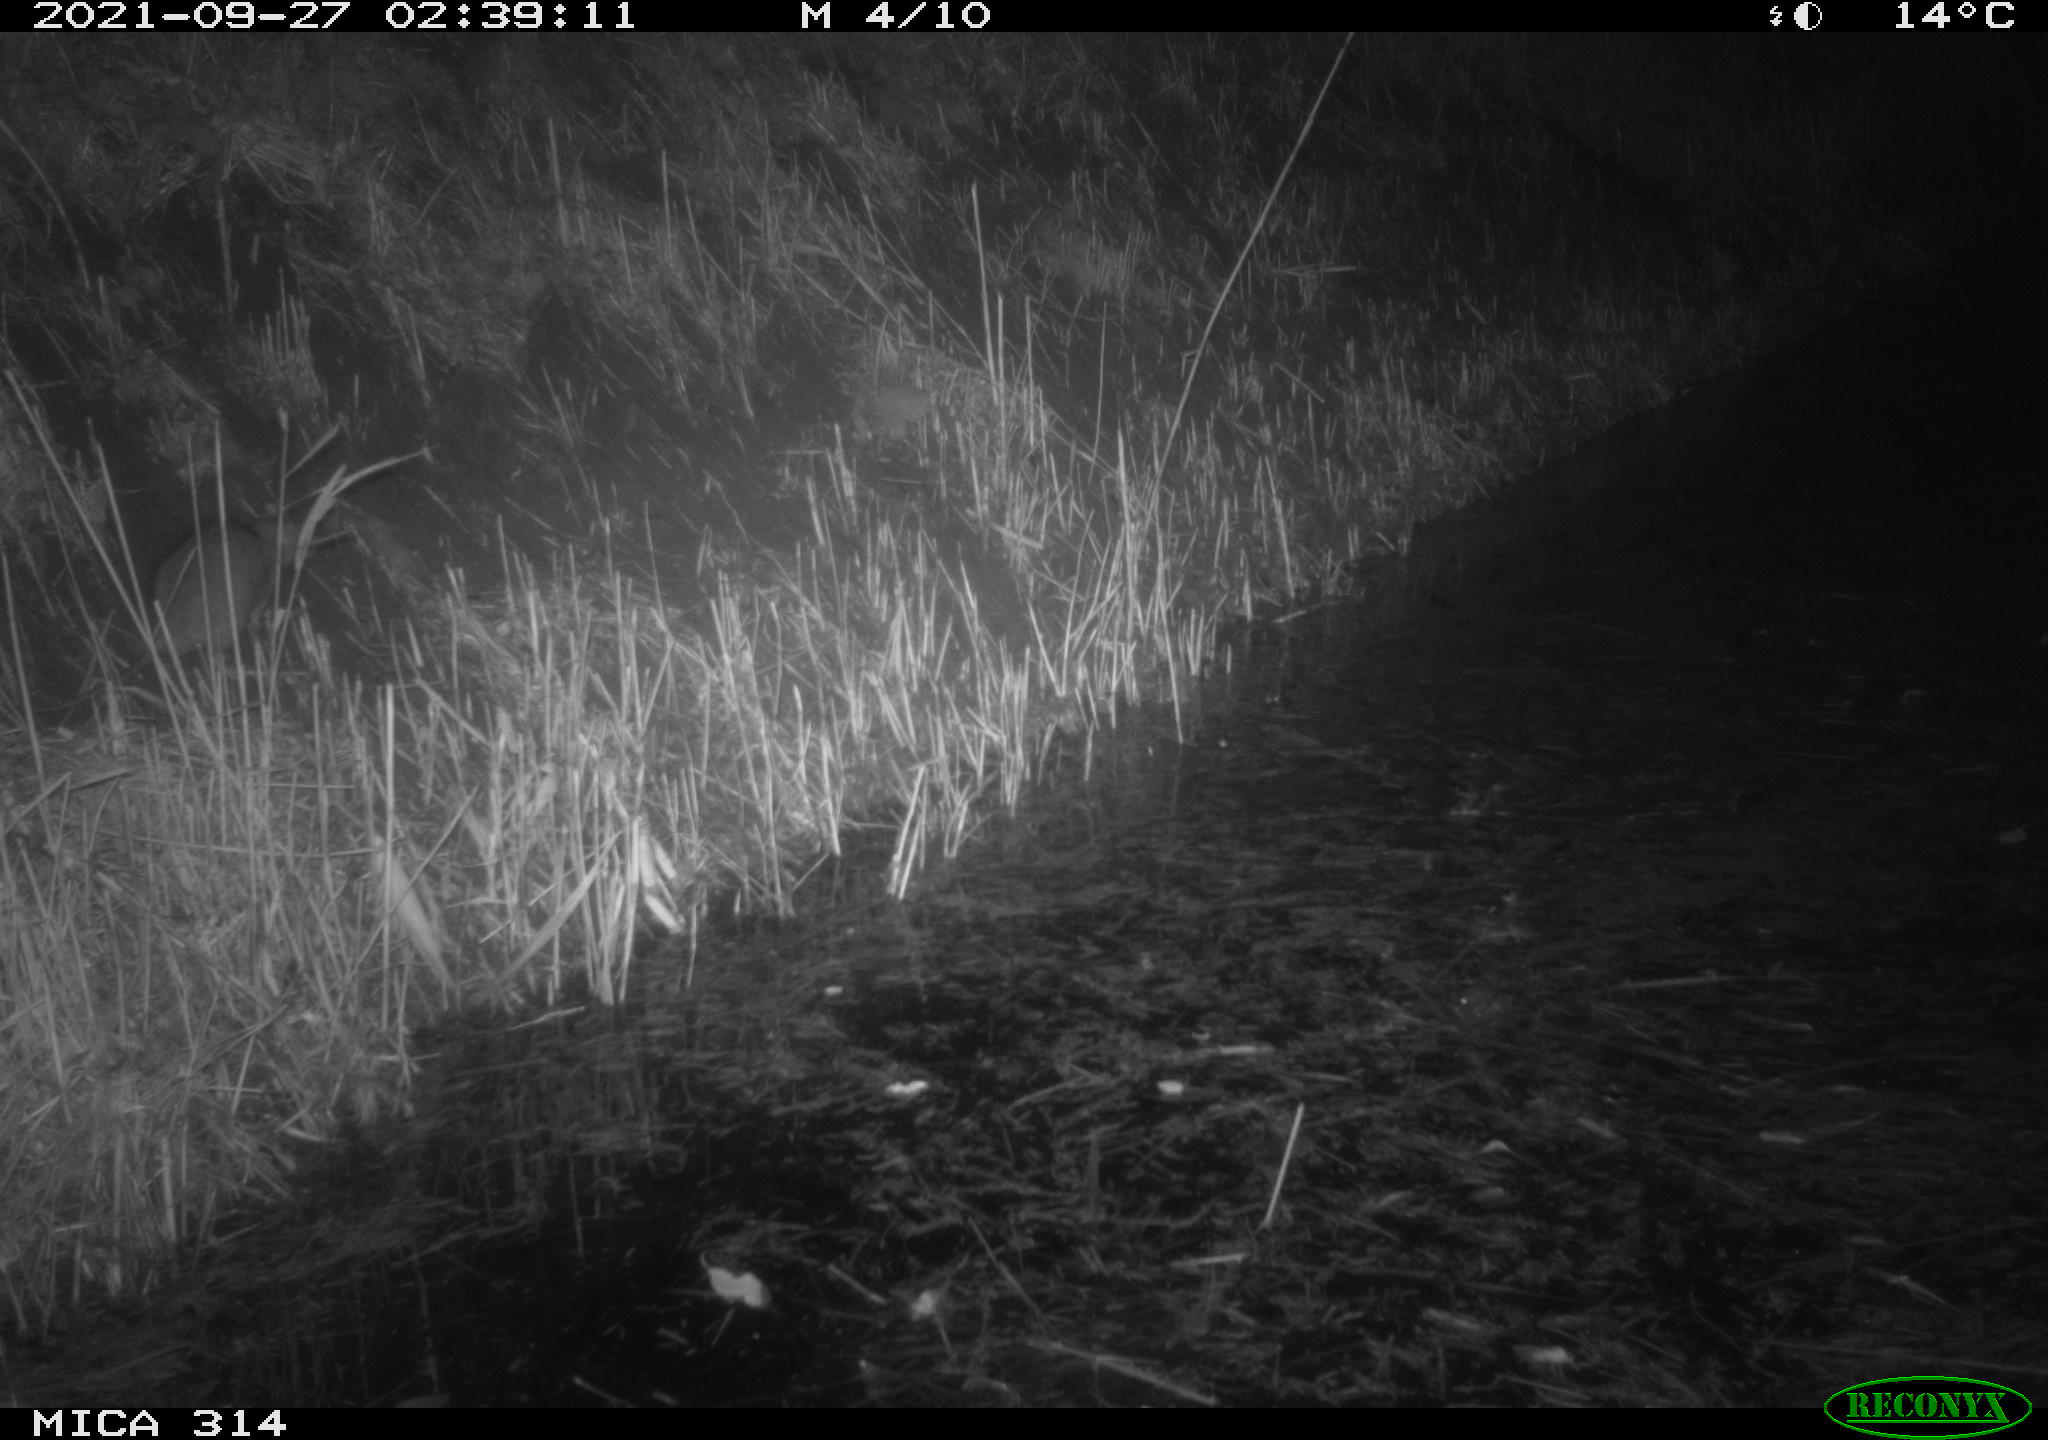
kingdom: Animalia
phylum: Chordata
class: Mammalia
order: Rodentia
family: Muridae
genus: Rattus
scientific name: Rattus norvegicus
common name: Brown rat
